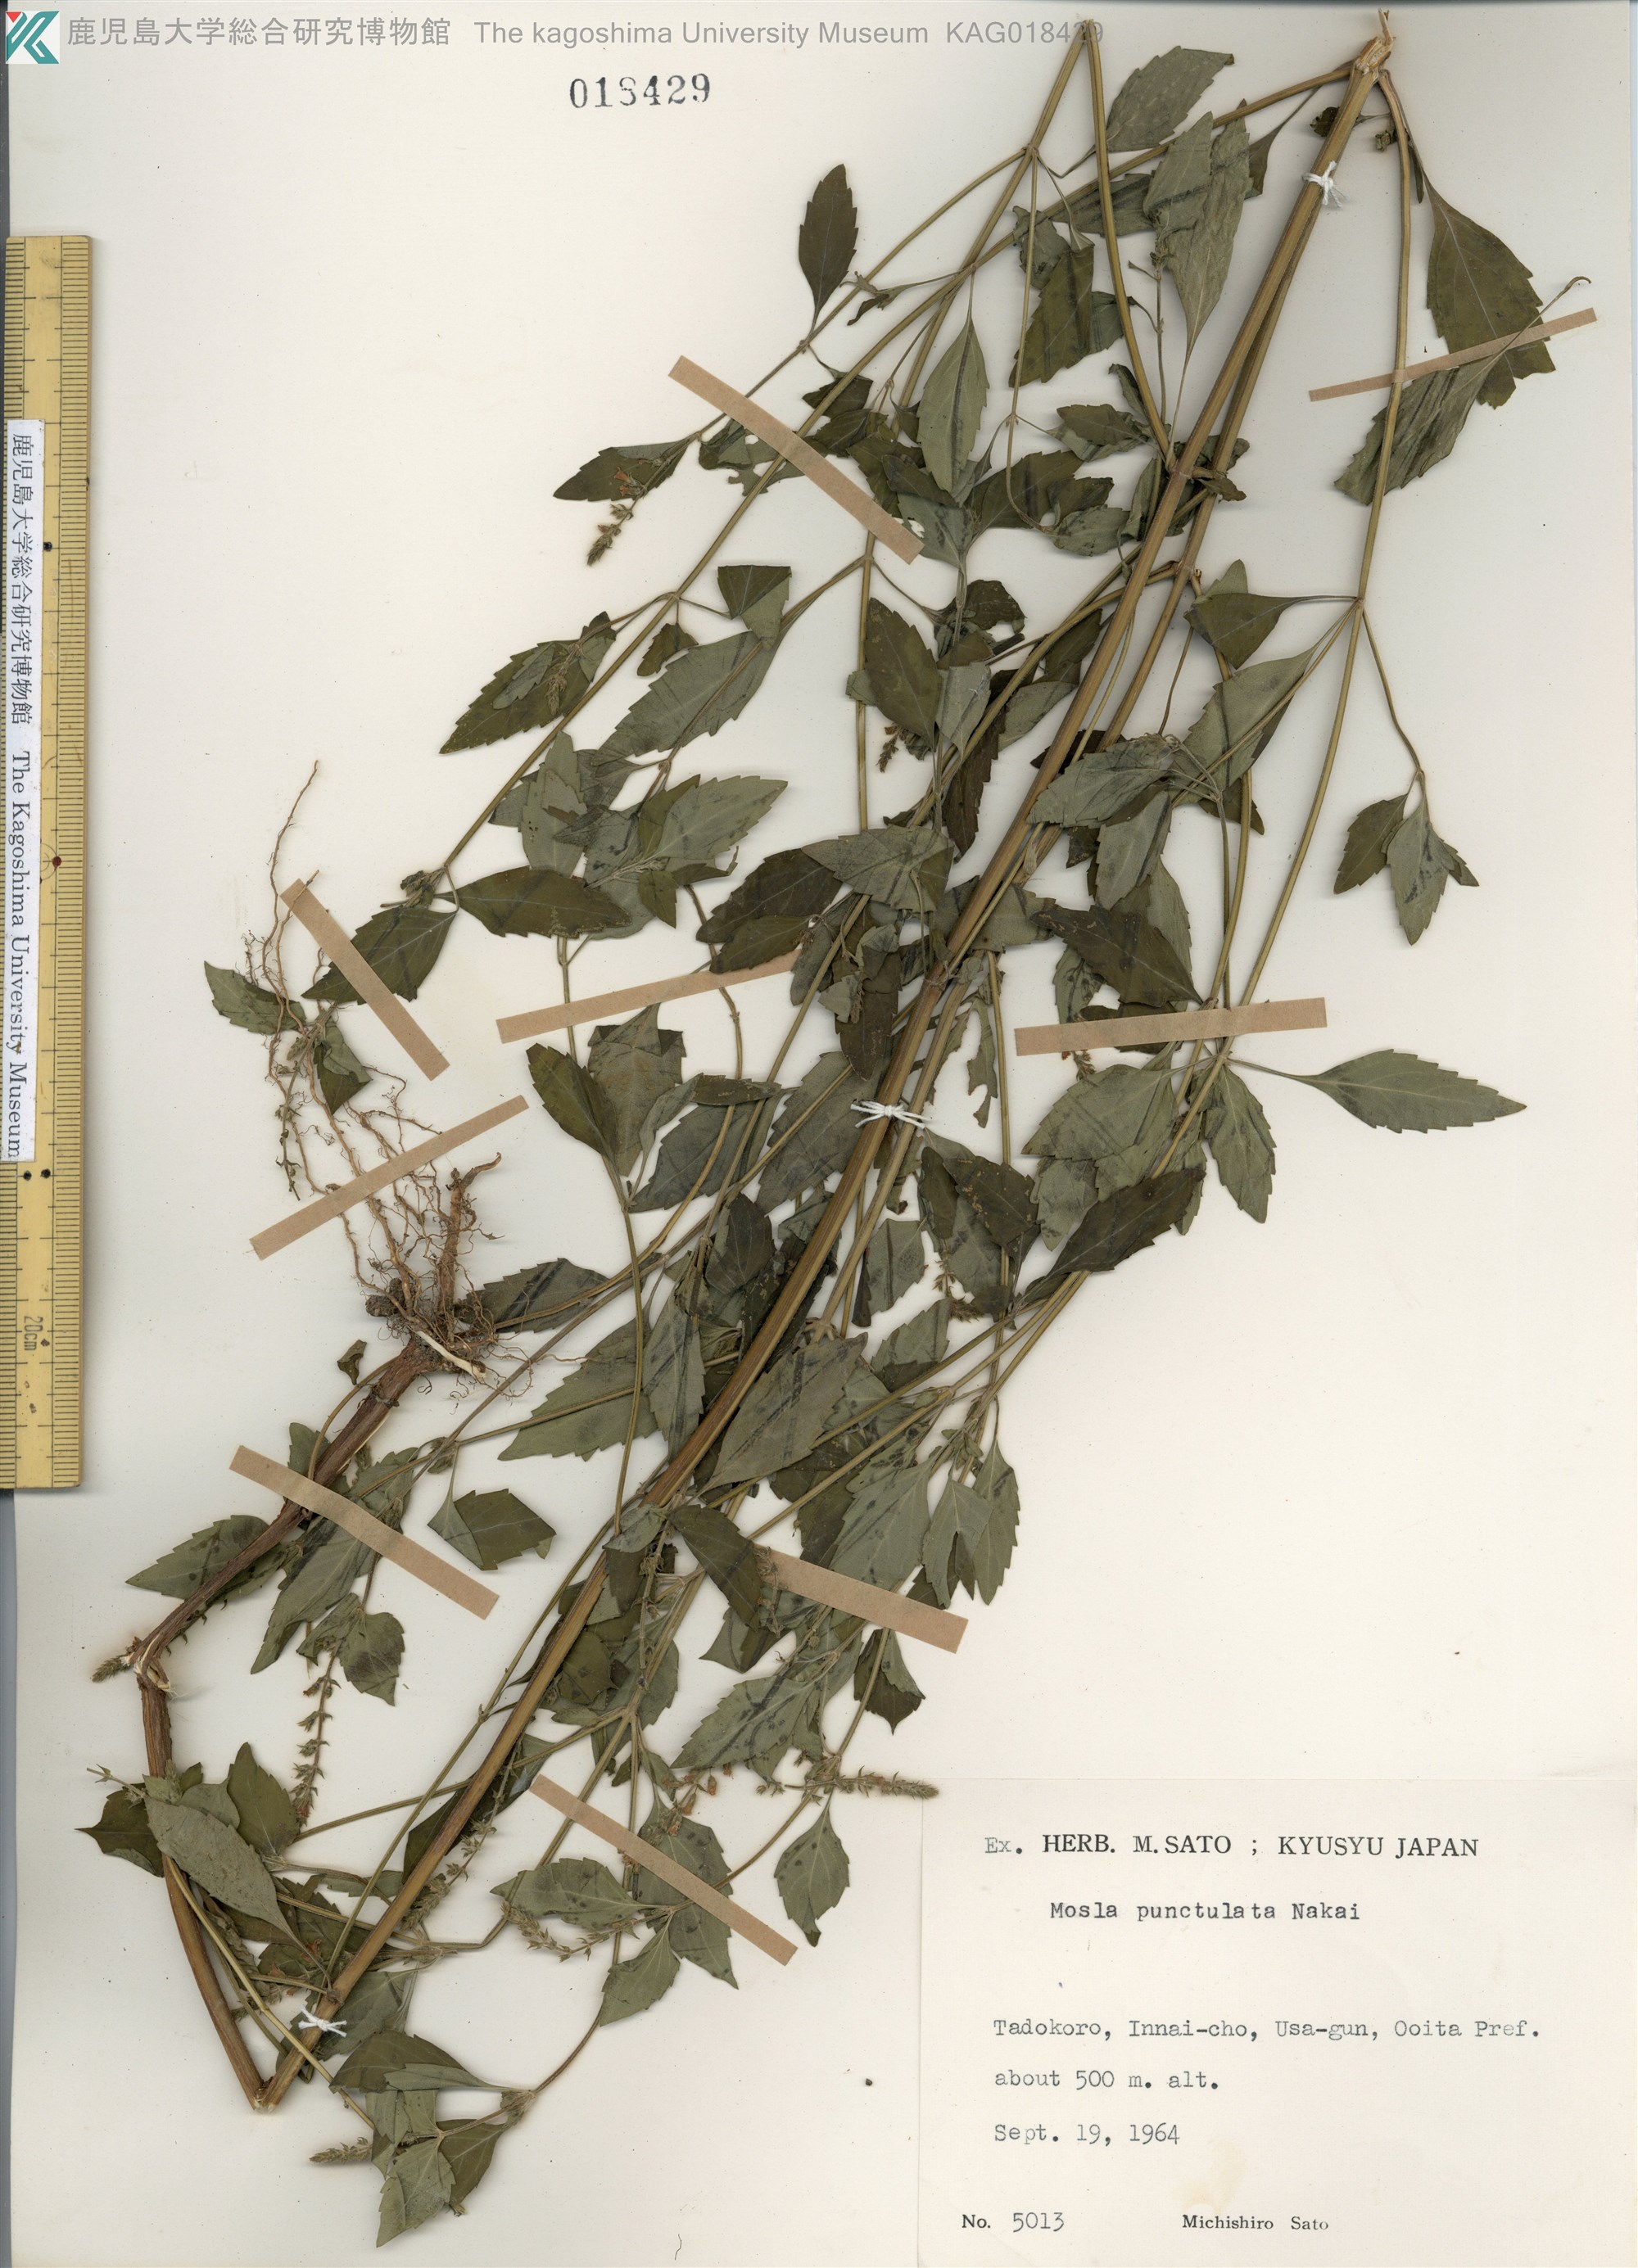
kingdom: Plantae
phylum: Tracheophyta
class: Magnoliopsida
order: Lamiales
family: Lamiaceae
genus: Mosla
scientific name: Mosla dianthera
